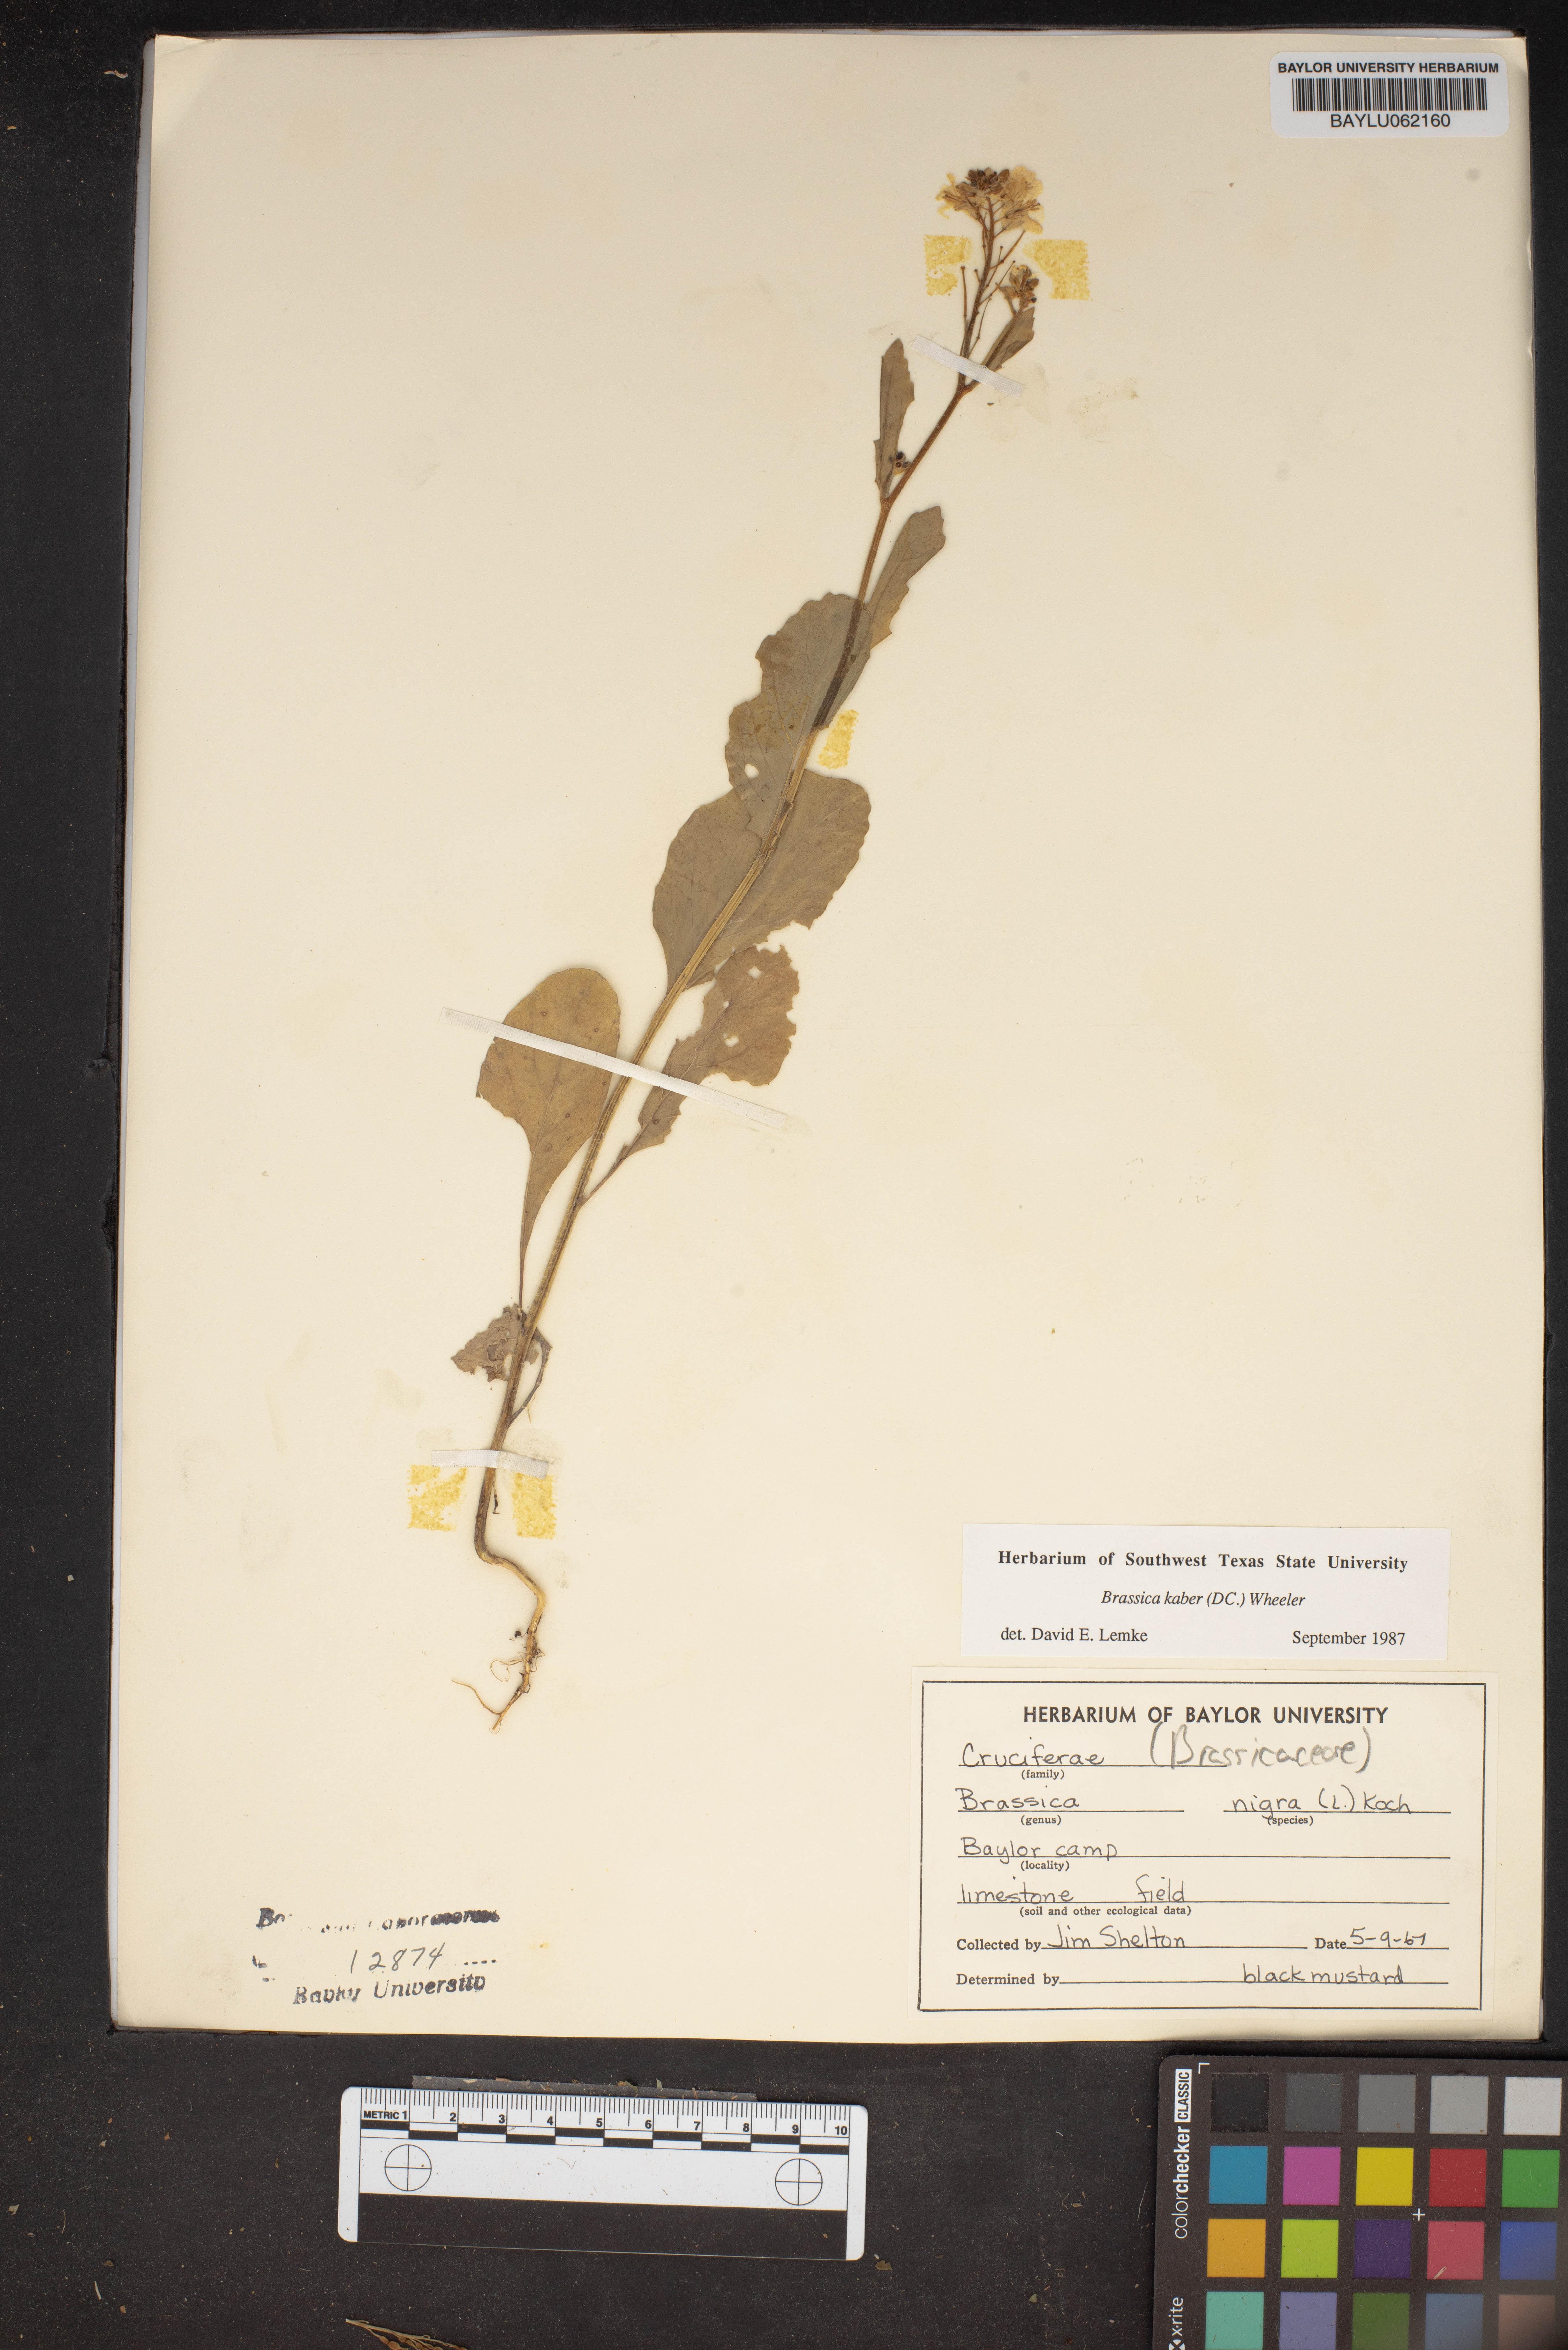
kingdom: Plantae
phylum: Tracheophyta
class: Magnoliopsida
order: Brassicales
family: Brassicaceae
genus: Sinapis
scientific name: Sinapis arvensis
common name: Charlock
